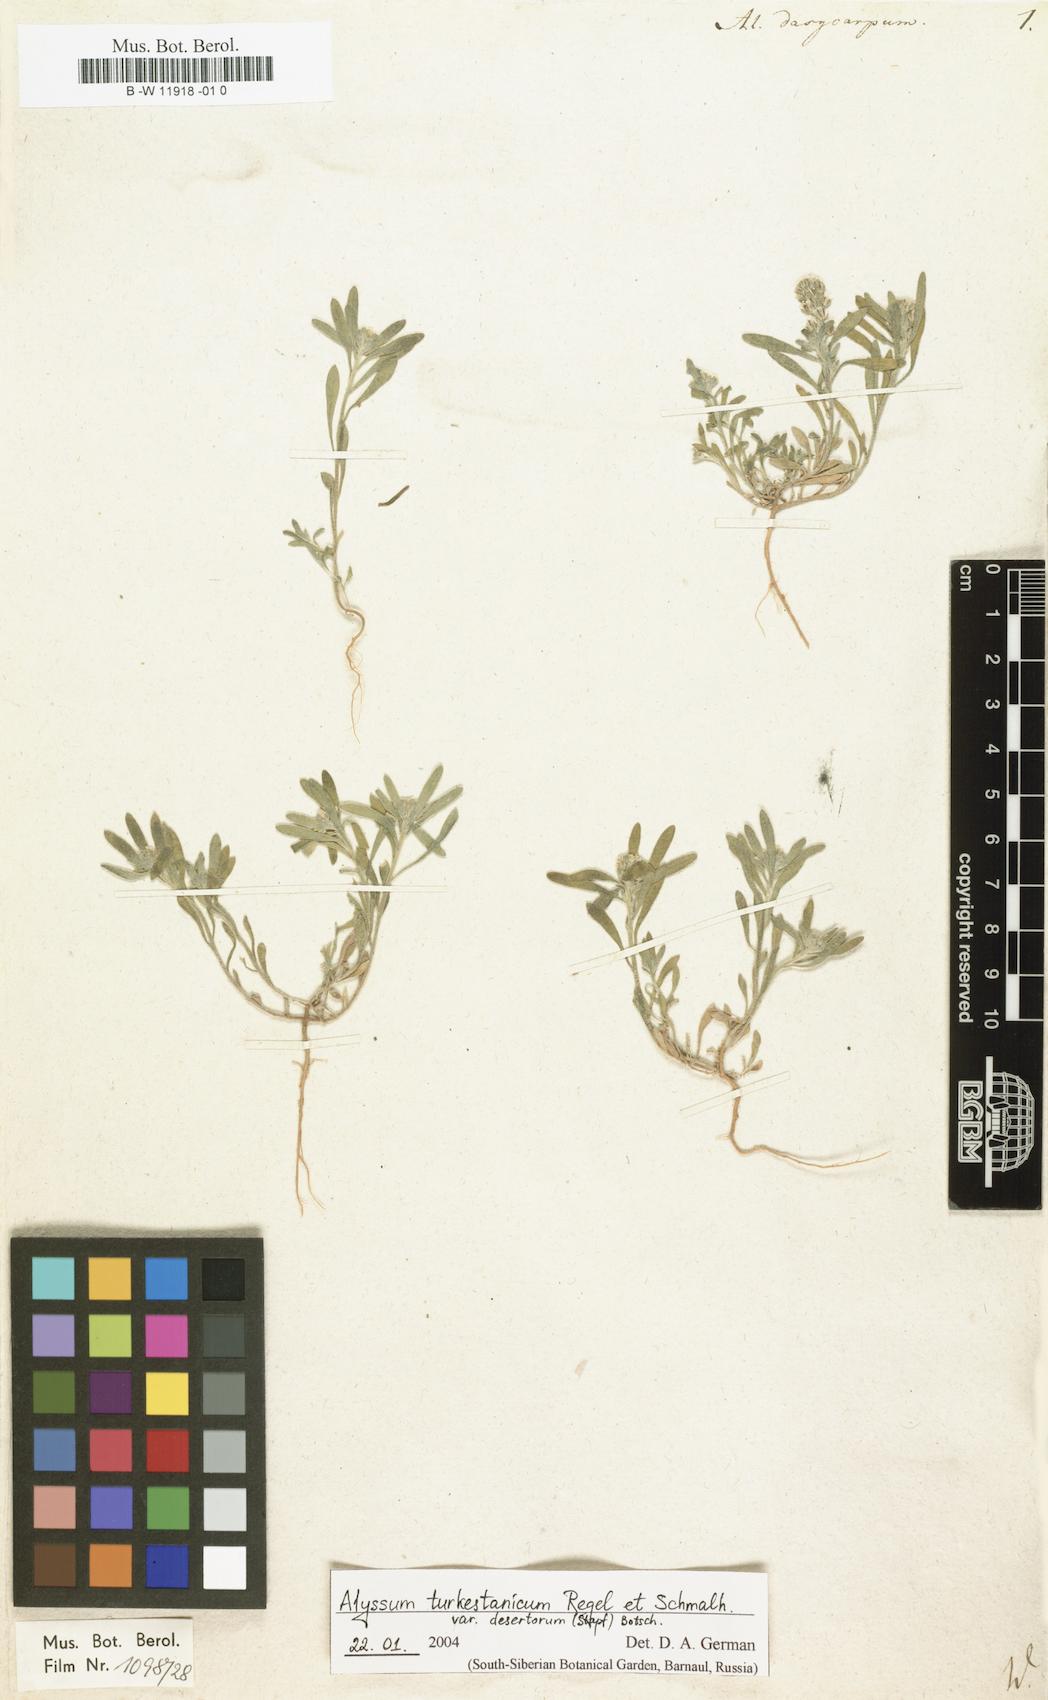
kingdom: Plantae
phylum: Tracheophyta
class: Magnoliopsida
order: Brassicales
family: Brassicaceae
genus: Alyssum
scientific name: Alyssum dasycarpum
